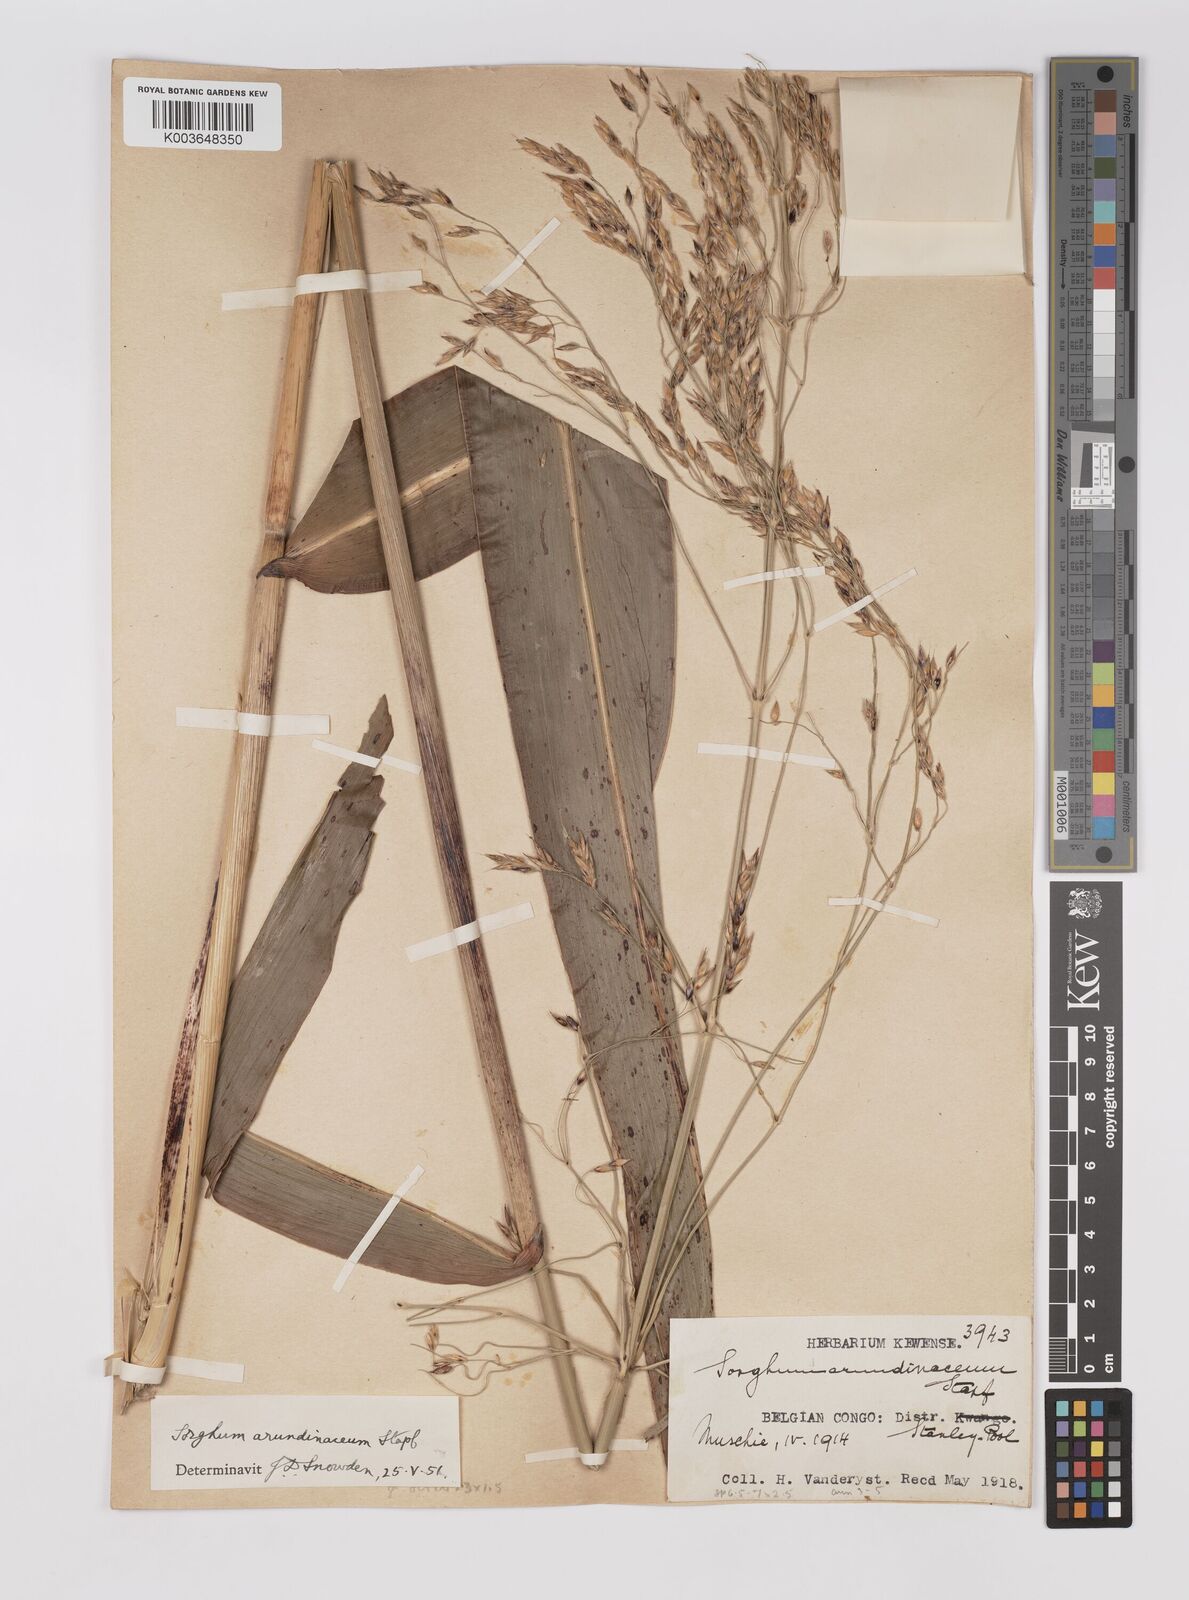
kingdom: Plantae
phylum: Tracheophyta
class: Liliopsida
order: Poales
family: Poaceae
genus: Sorghum
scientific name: Sorghum arundinaceum
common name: Sorghum
